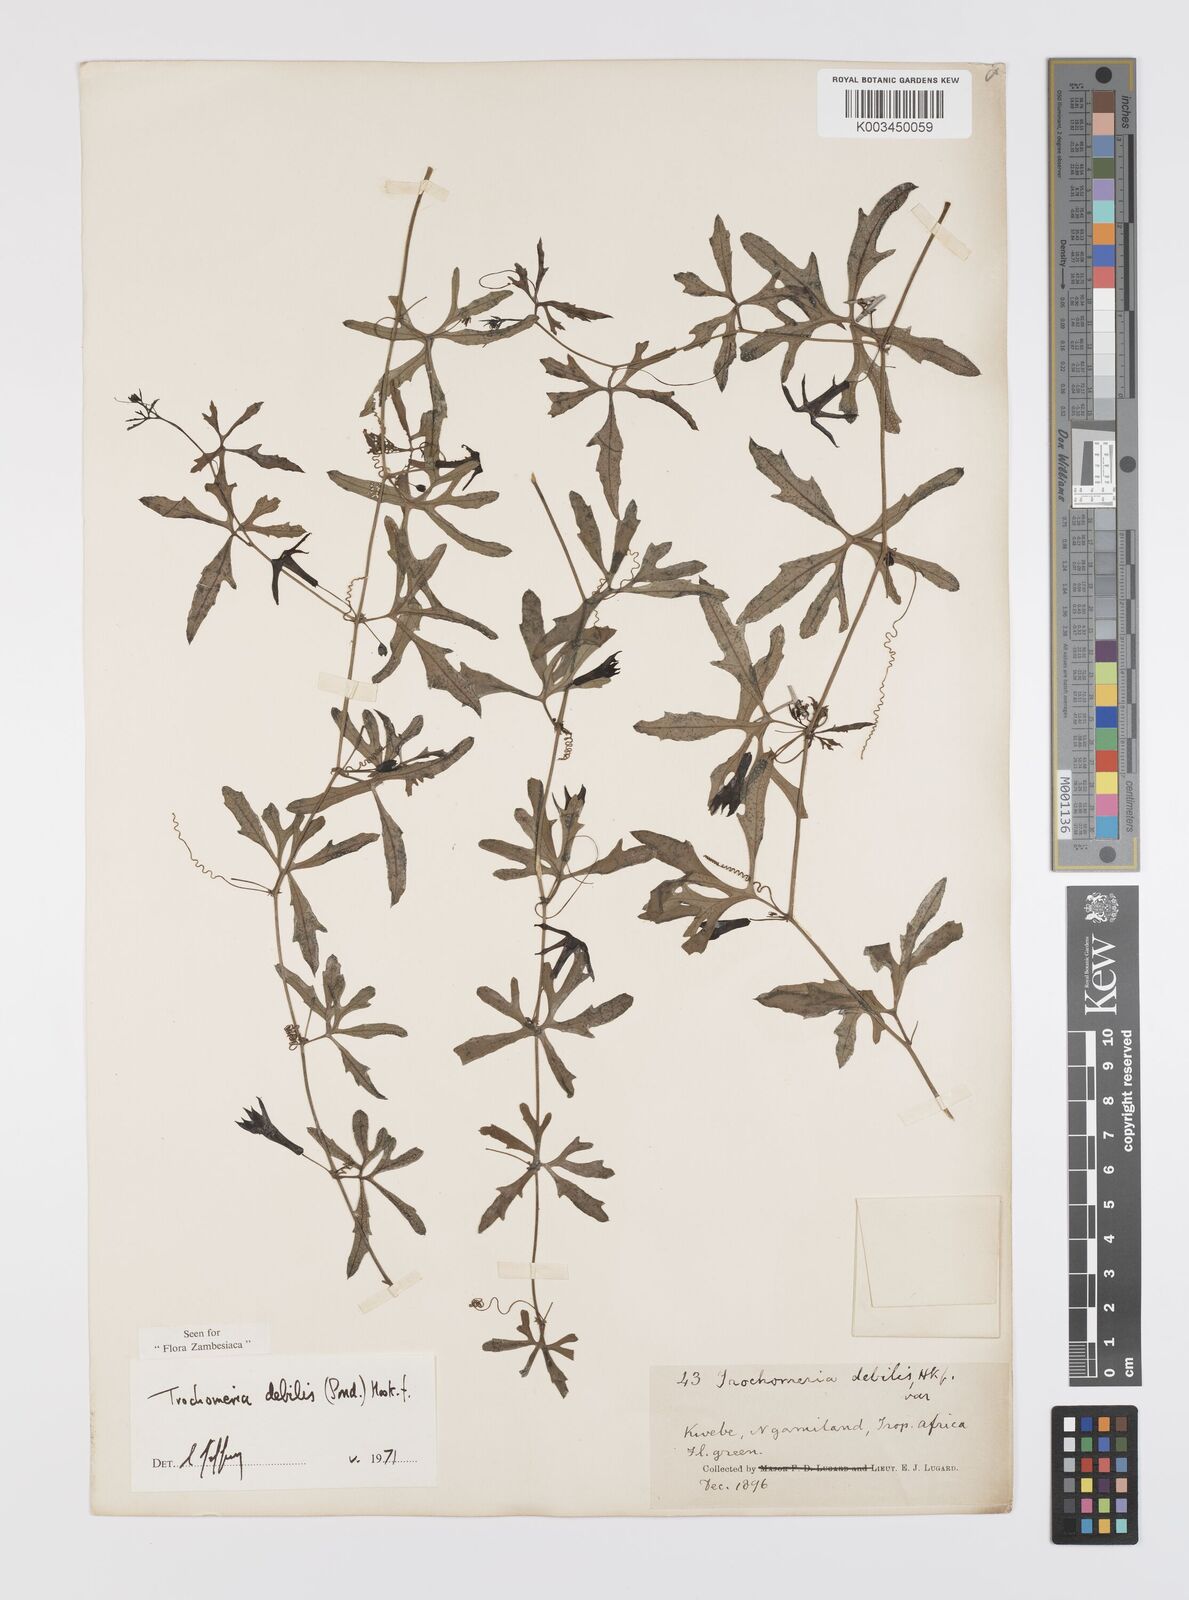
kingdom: Plantae
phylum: Tracheophyta
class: Magnoliopsida
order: Cucurbitales
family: Cucurbitaceae
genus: Trochomeria
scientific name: Trochomeria debilis
